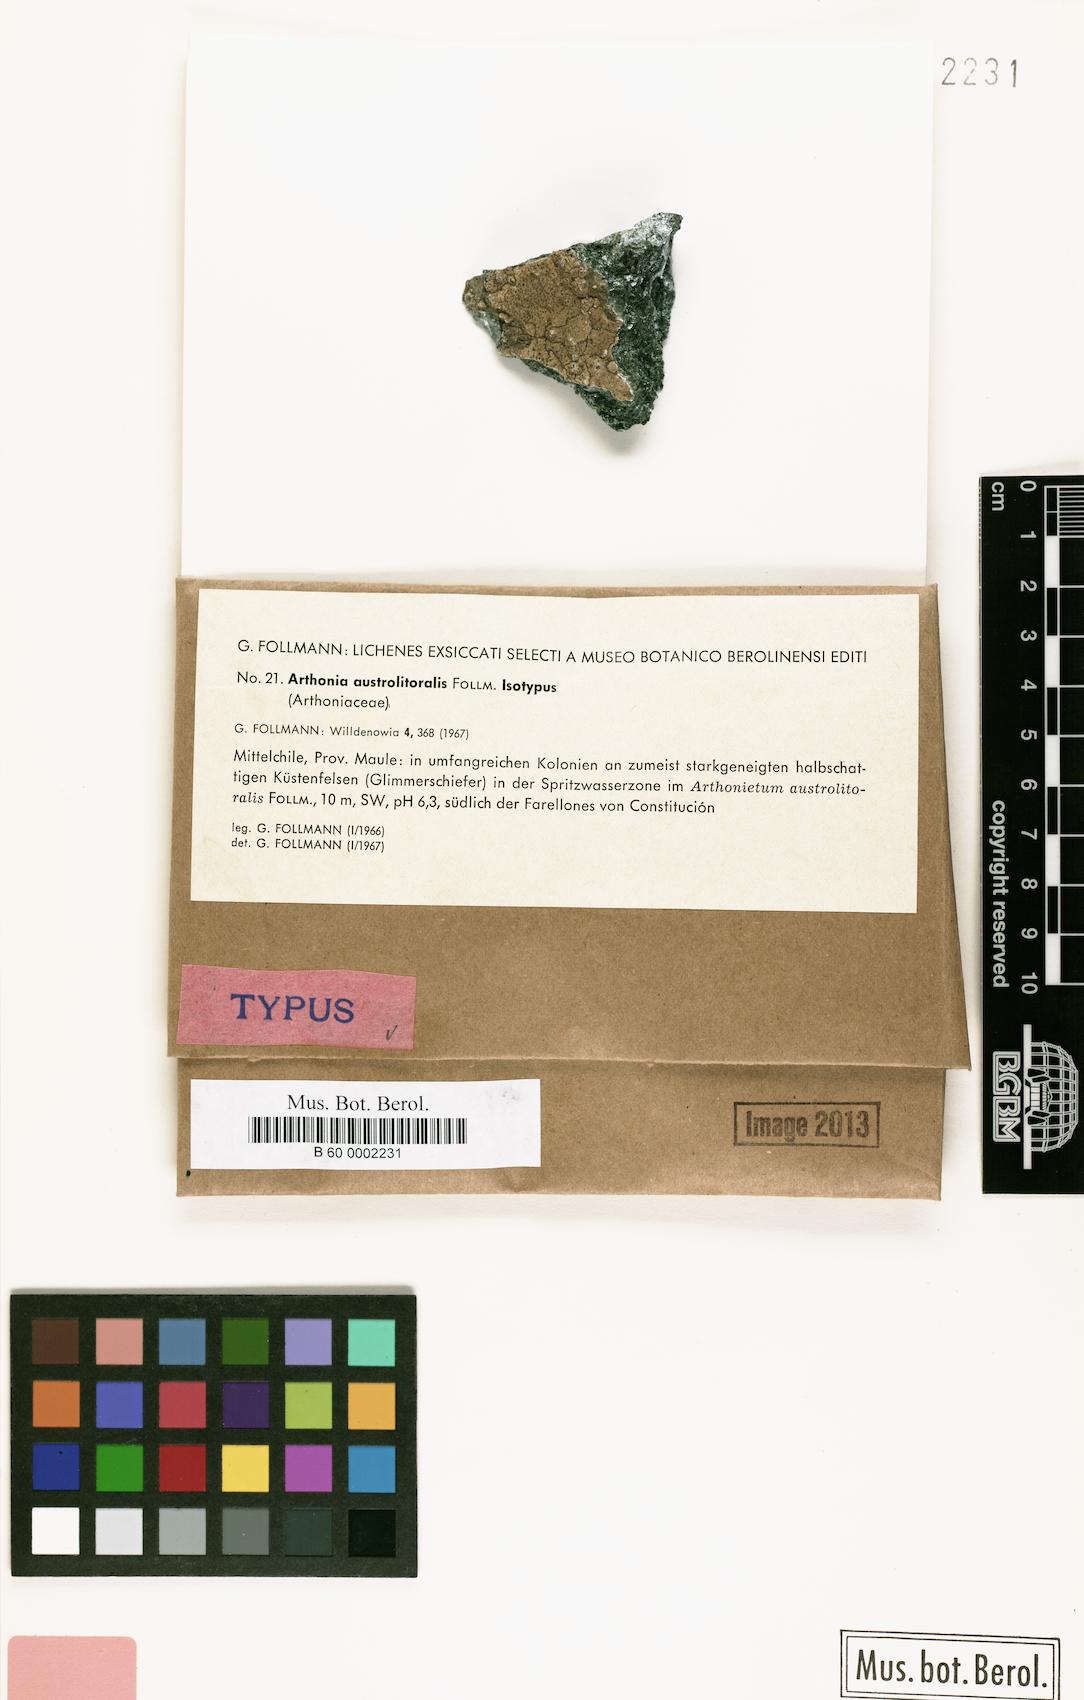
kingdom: Fungi
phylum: Ascomycota
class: Arthoniomycetes
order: Arthoniales
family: Arthoniaceae
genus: Arthonia
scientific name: Arthonia
